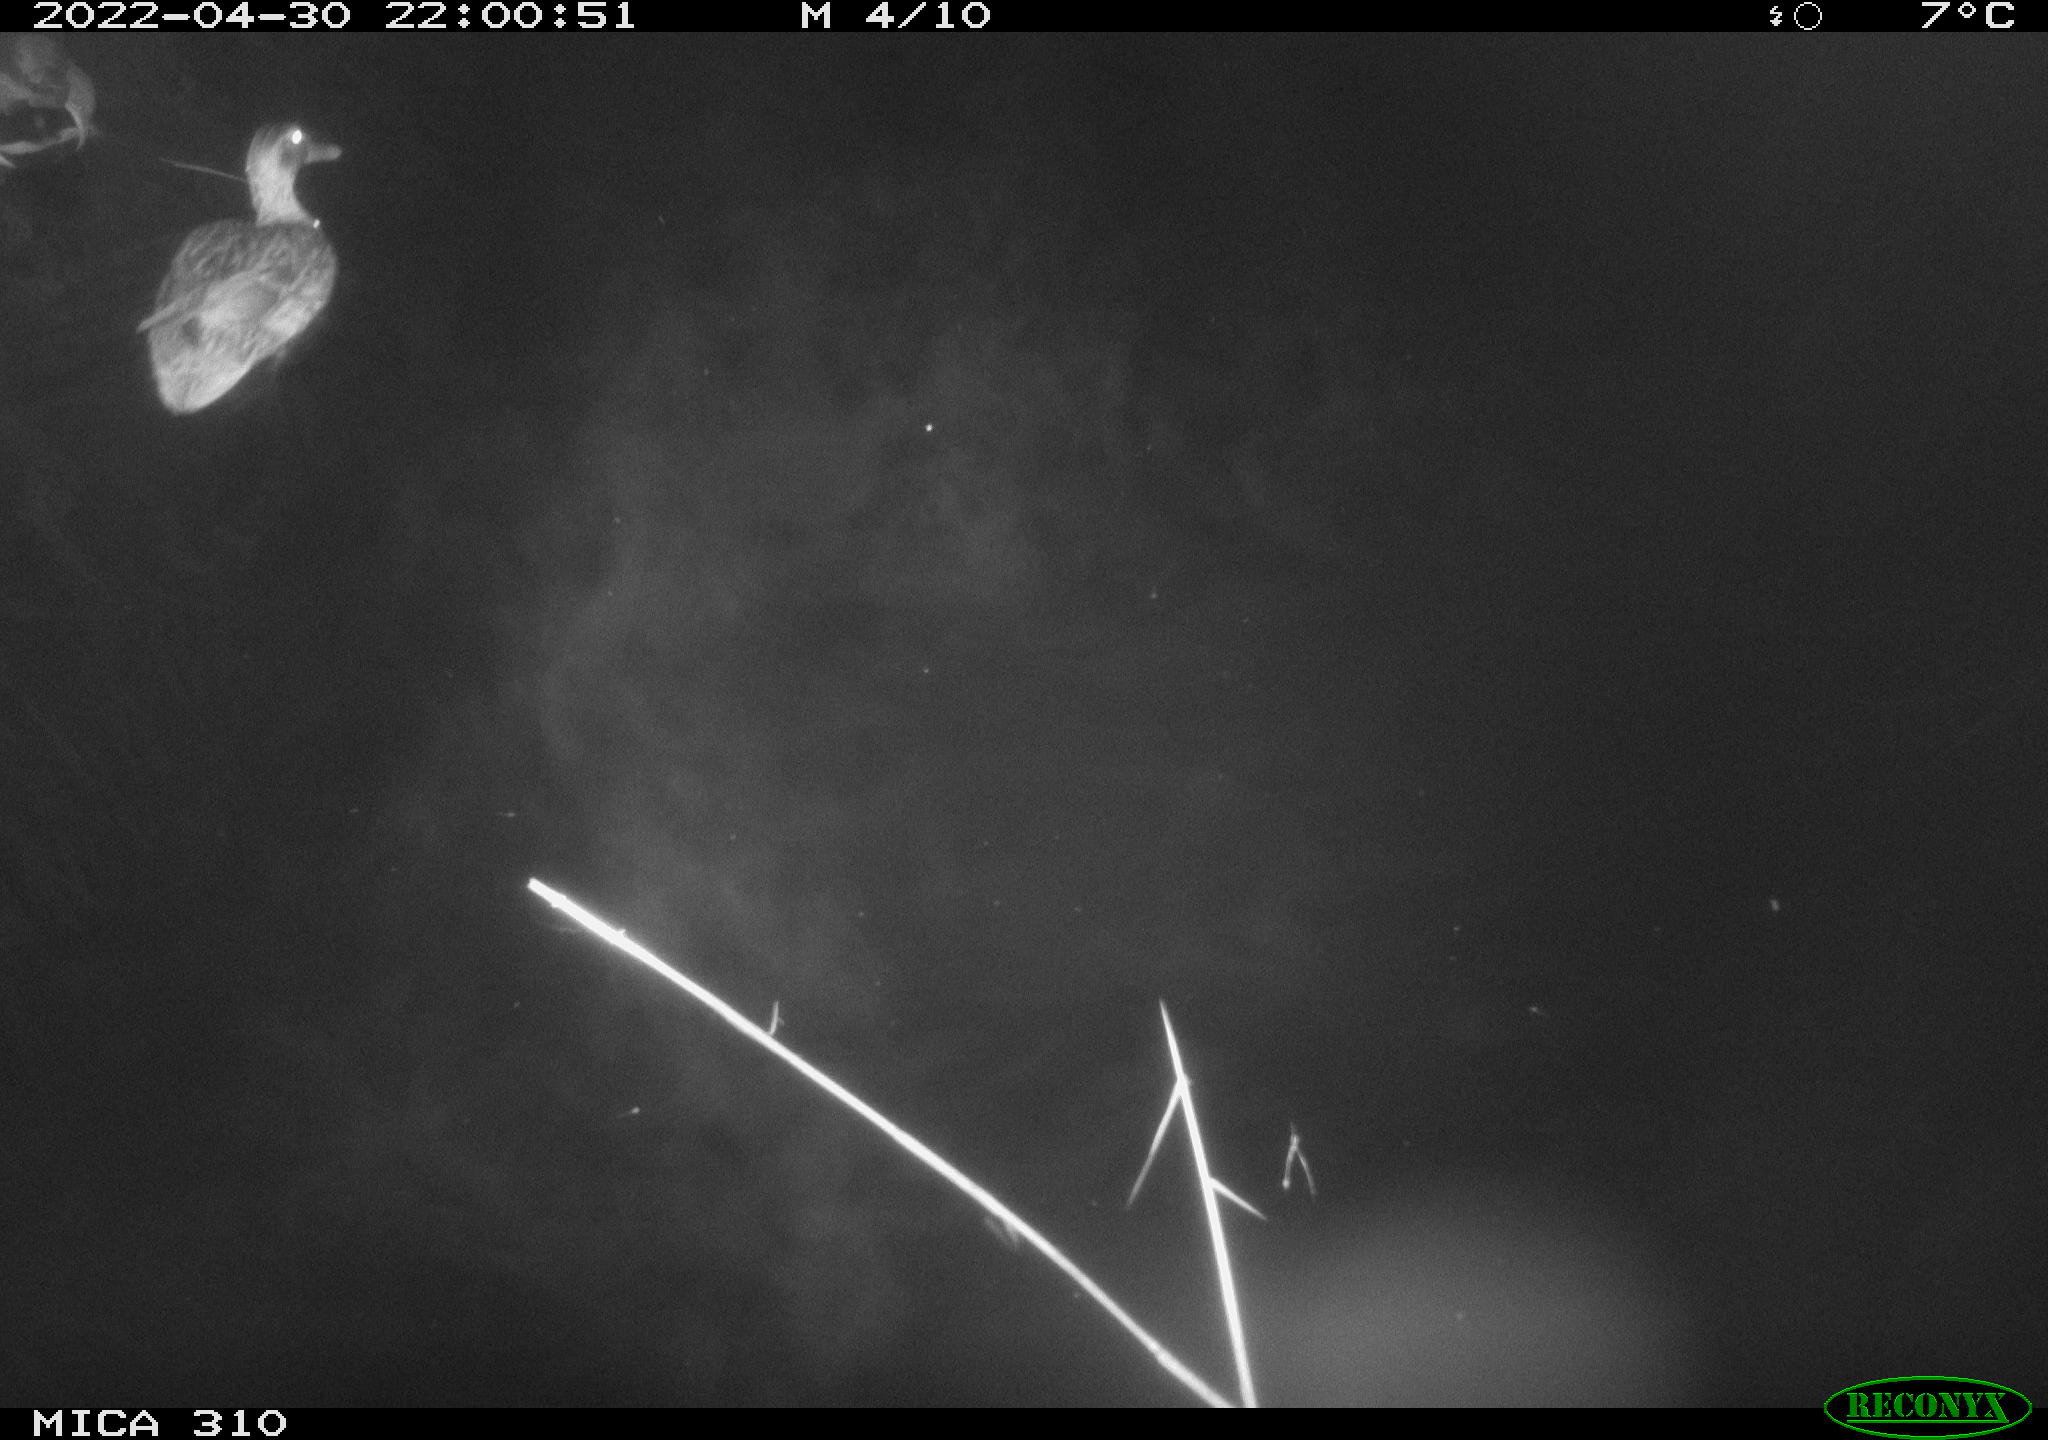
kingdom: Animalia
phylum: Chordata
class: Aves
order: Anseriformes
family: Anatidae
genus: Anas
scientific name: Anas platyrhynchos
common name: Mallard
